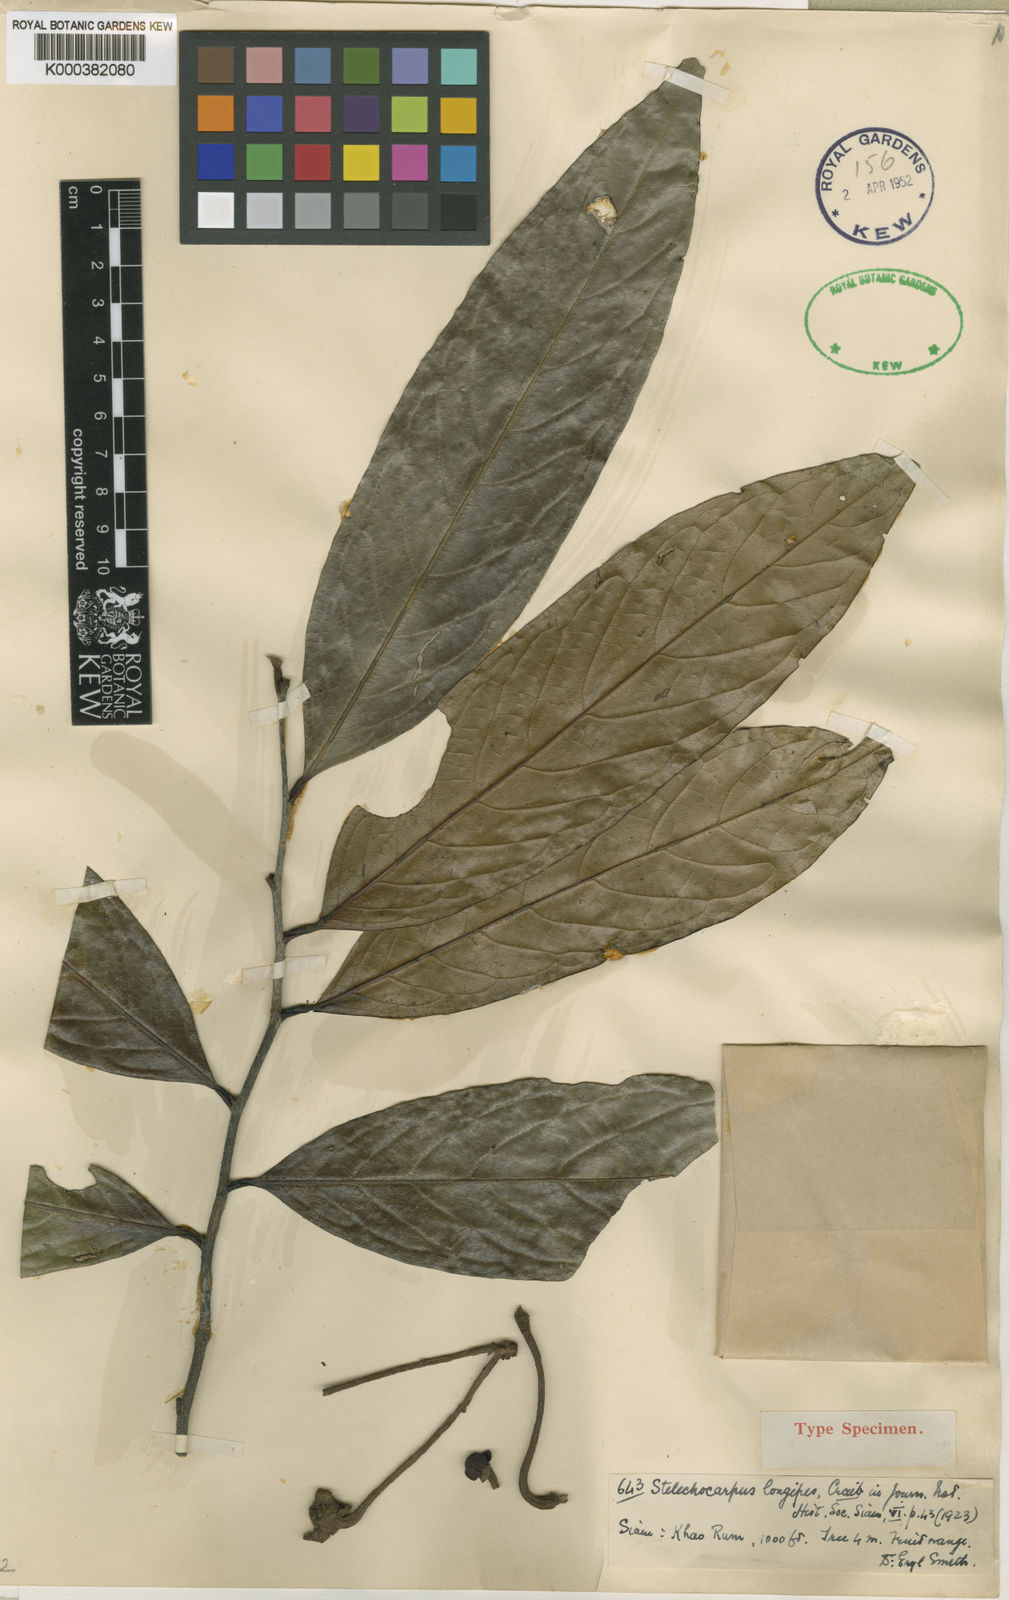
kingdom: Plantae
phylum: Tracheophyta
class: Magnoliopsida
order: Magnoliales
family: Annonaceae
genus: Stelechocarpus
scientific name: Stelechocarpus longipes
